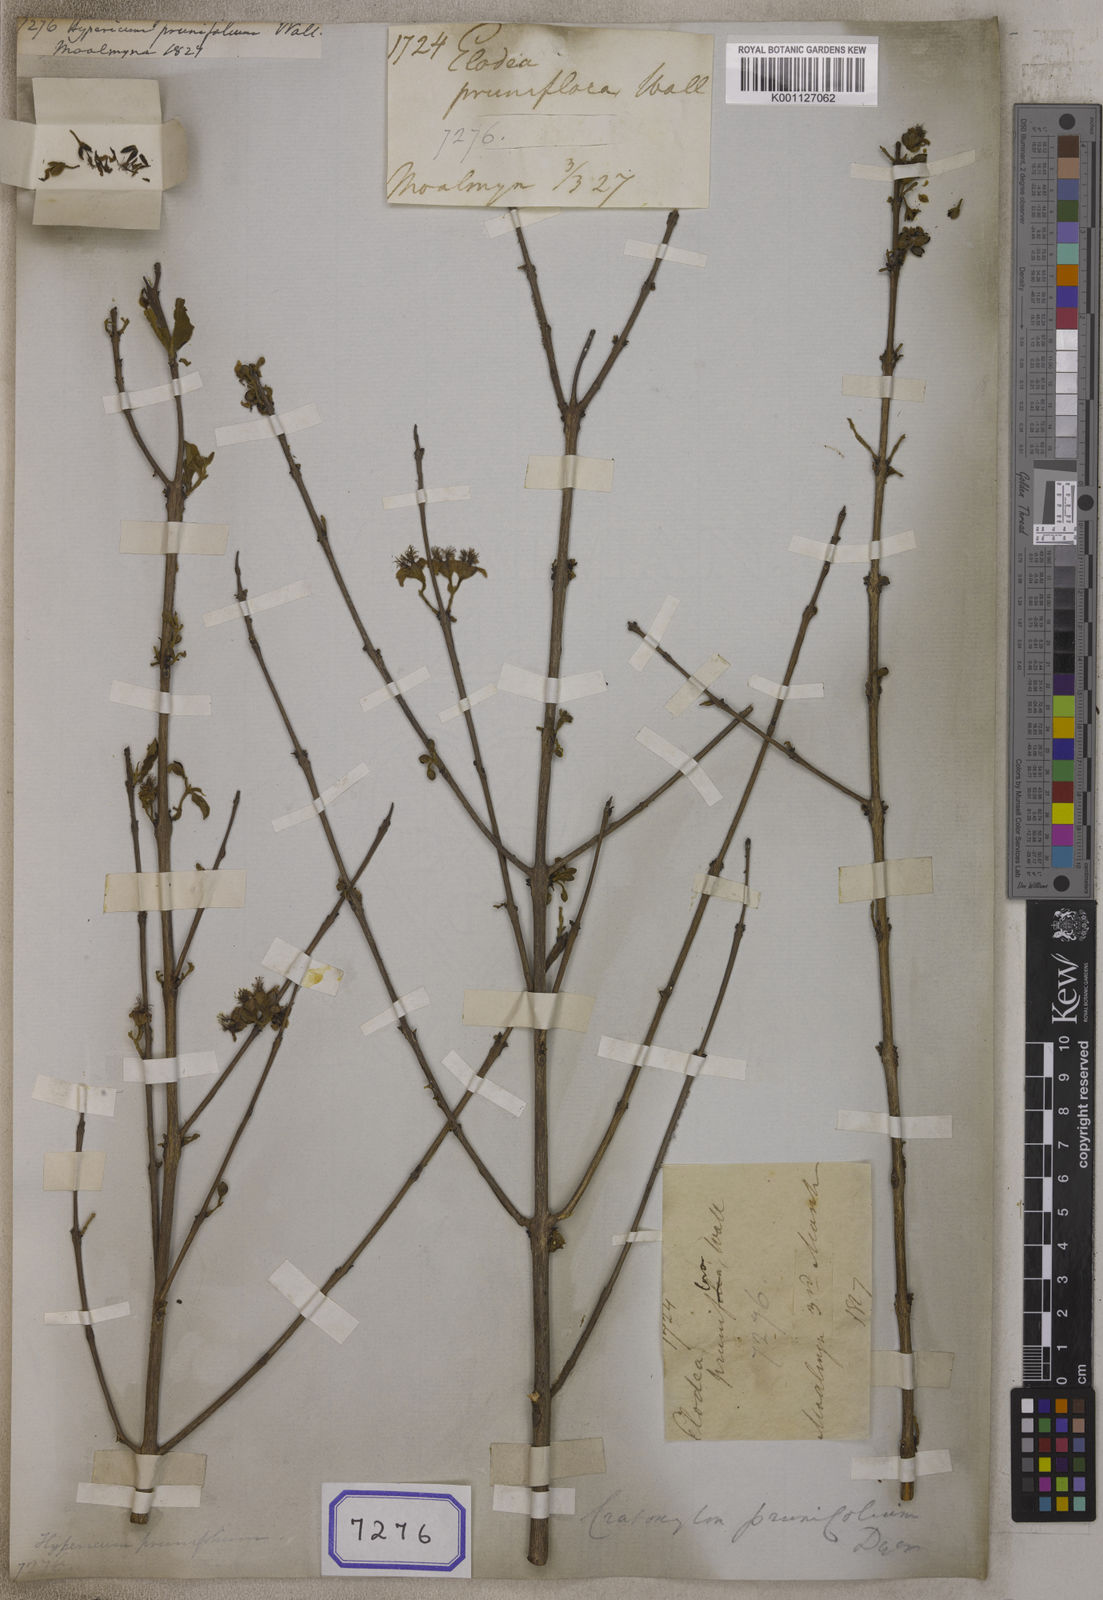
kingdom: Plantae
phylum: Tracheophyta
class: Magnoliopsida
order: Malpighiales
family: Hypericaceae
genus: Cratoxylum
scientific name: Cratoxylum formosum
